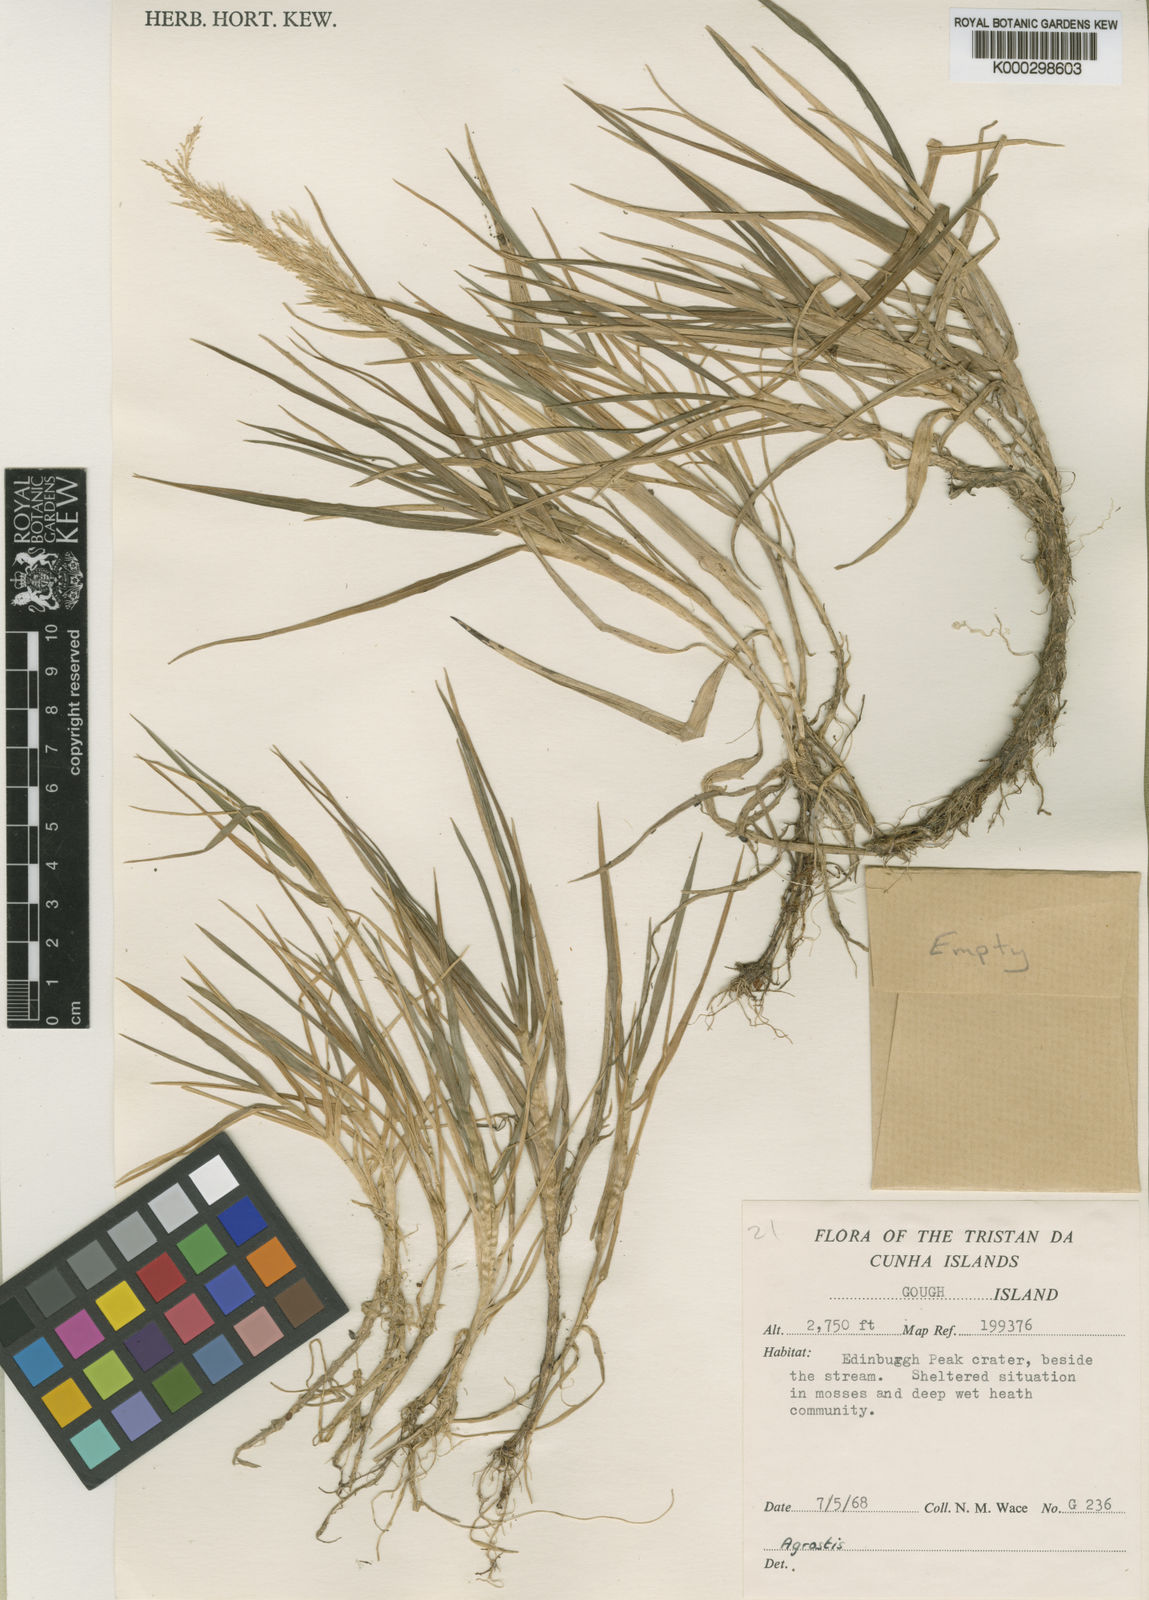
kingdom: Plantae
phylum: Tracheophyta
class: Liliopsida
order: Poales
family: Poaceae
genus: Polypogon
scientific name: Polypogon magellanicus
